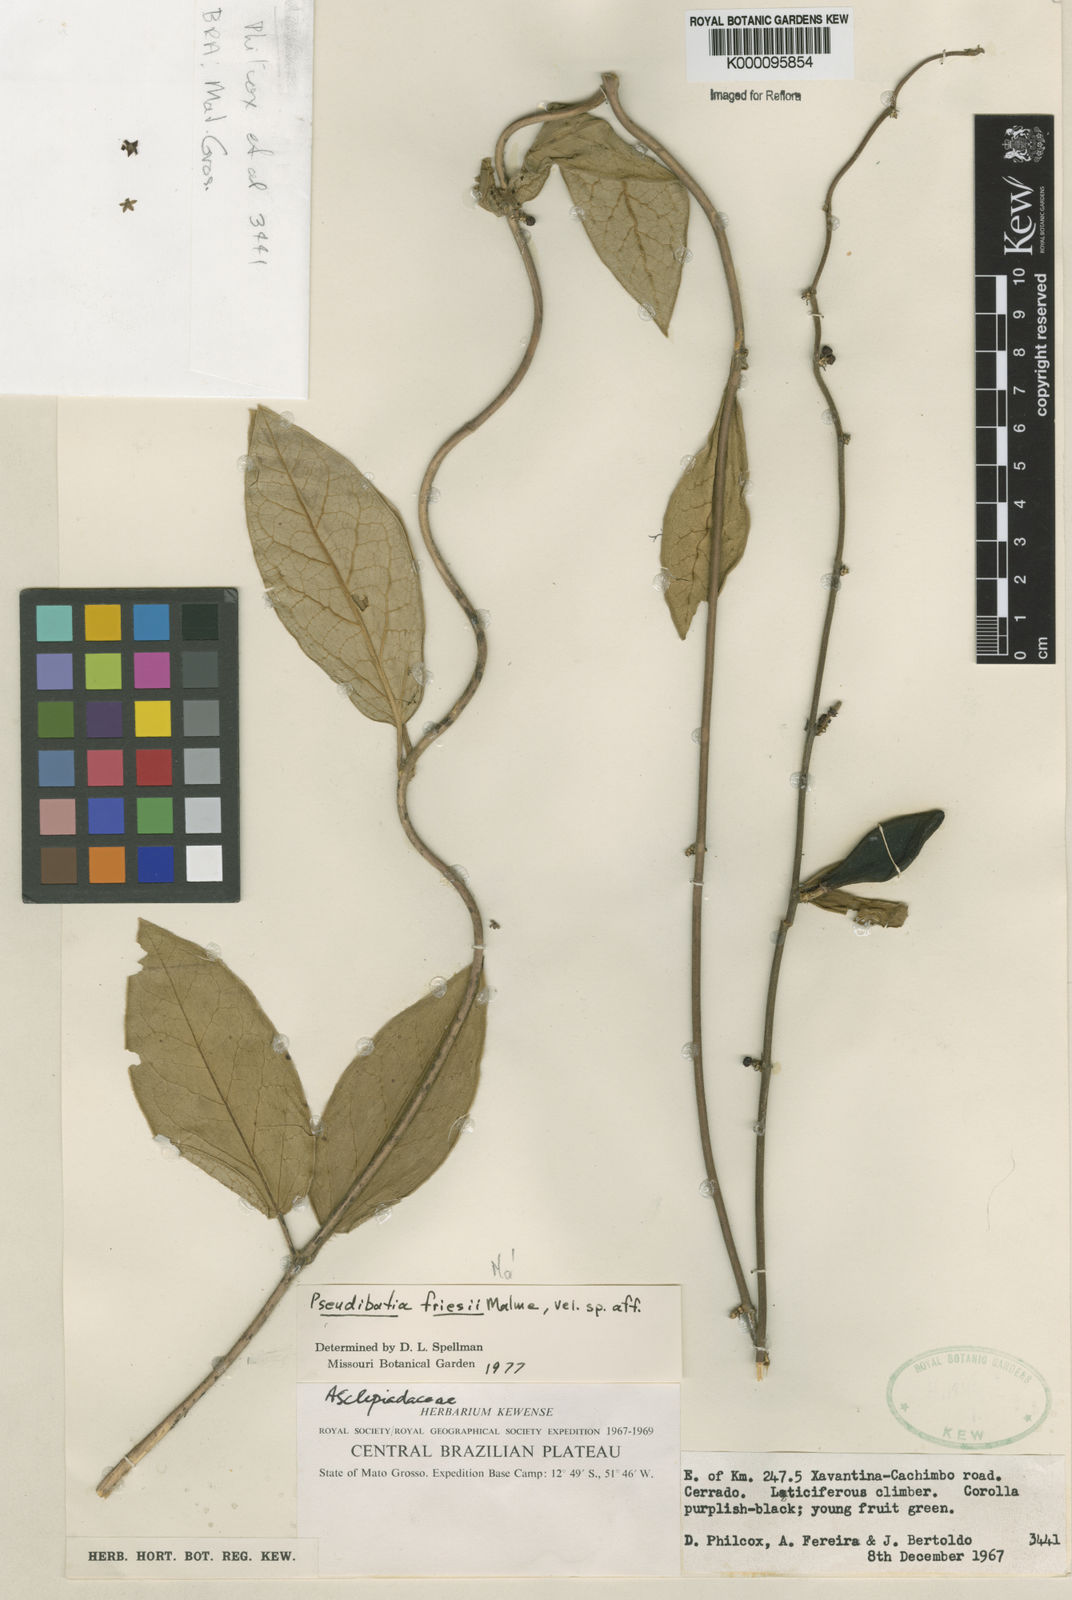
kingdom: Plantae
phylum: Tracheophyta
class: Magnoliopsida
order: Gentianales
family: Apocynaceae
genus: Ibatia
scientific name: Ibatia friesii
